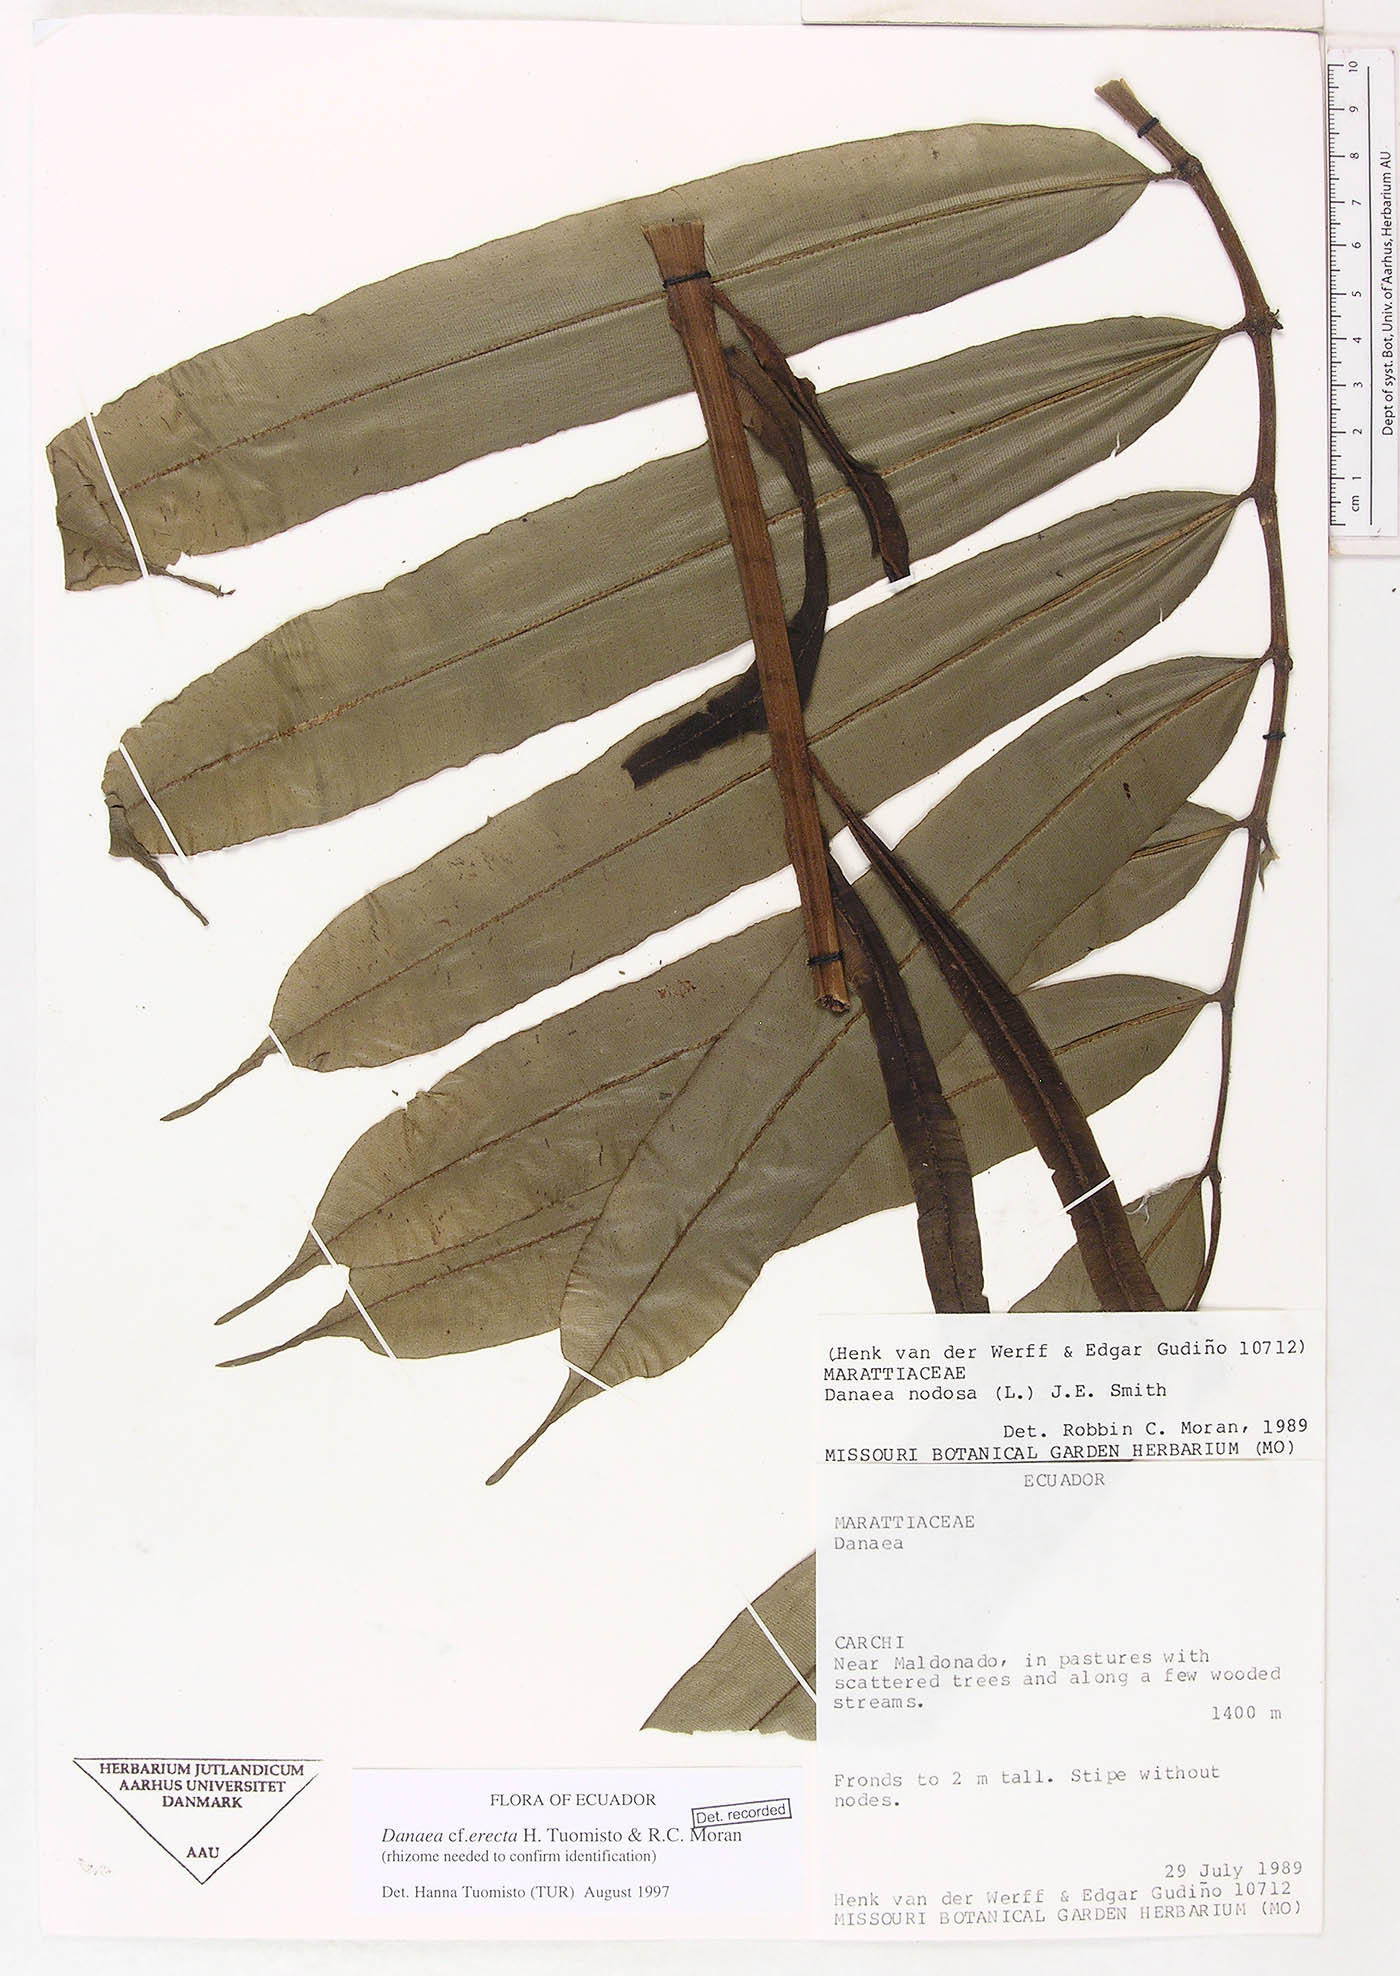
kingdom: Plantae
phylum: Tracheophyta
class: Polypodiopsida
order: Marattiales
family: Marattiaceae
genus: Danaea
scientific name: Danaea erecta
